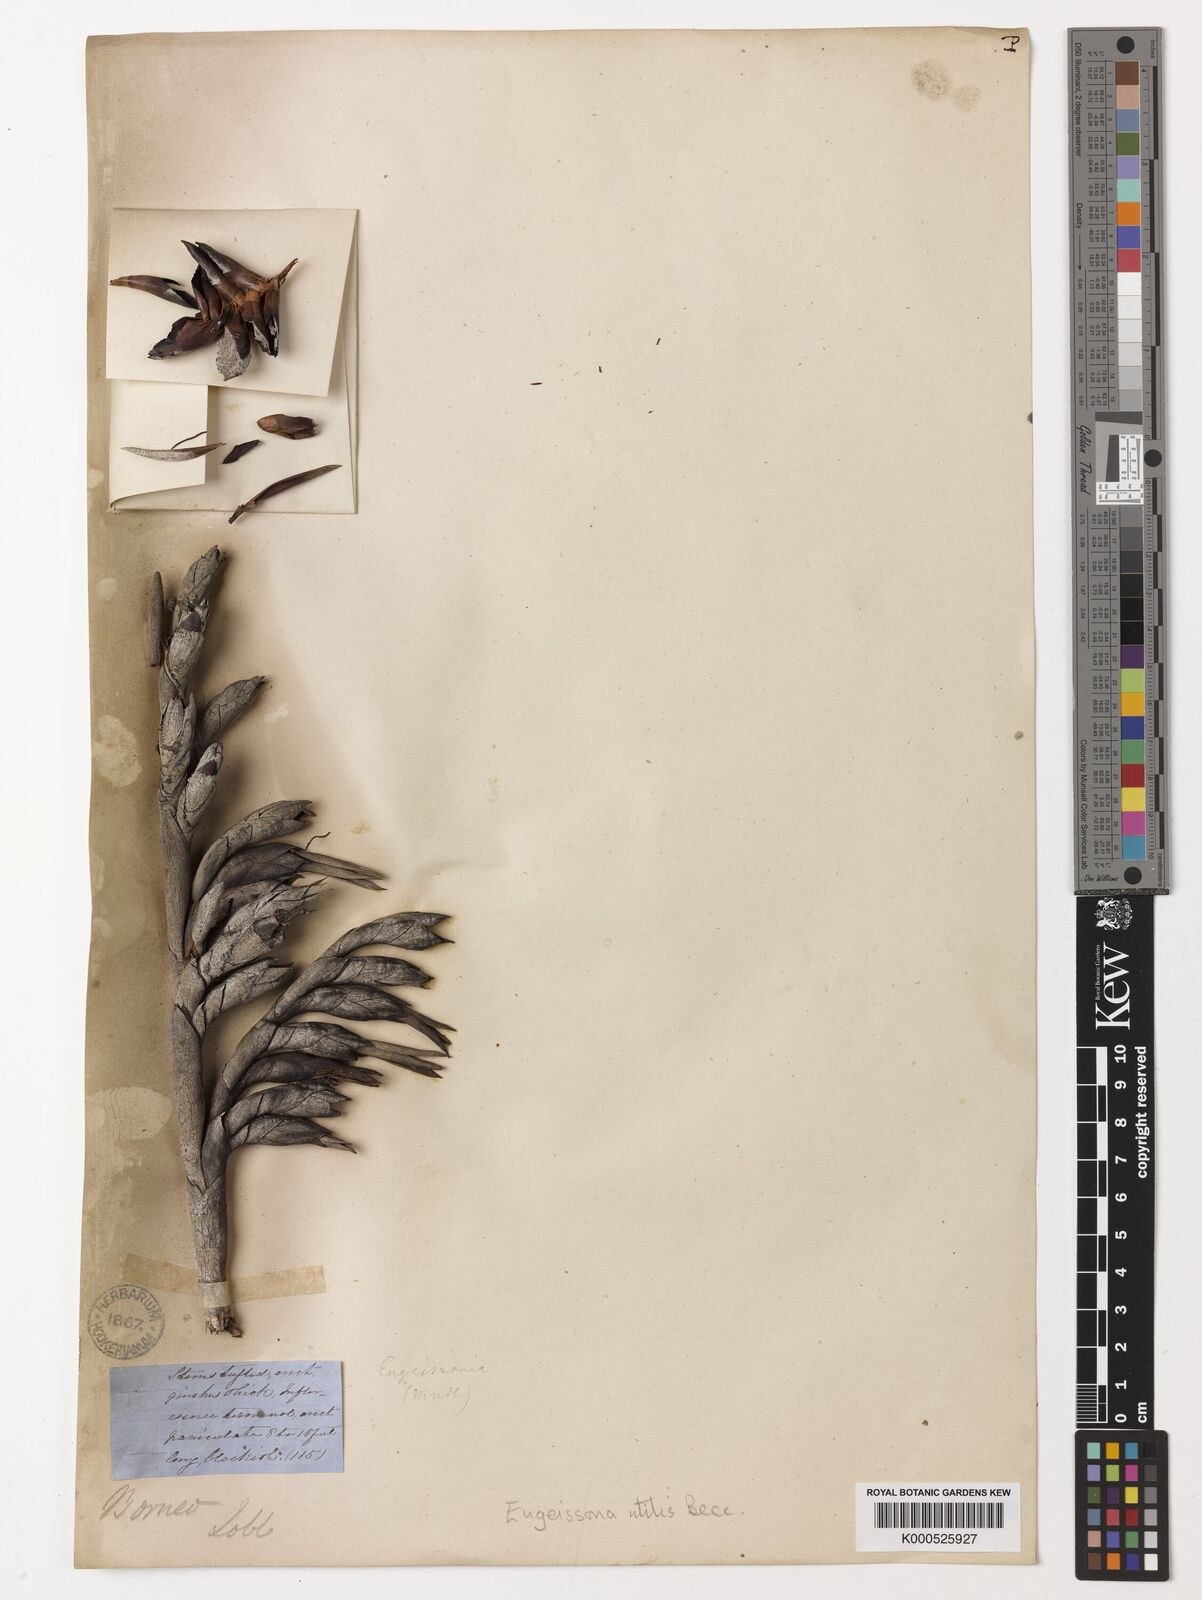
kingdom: Plantae
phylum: Tracheophyta
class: Liliopsida
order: Arecales
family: Arecaceae
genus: Eugeissona
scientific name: Eugeissona utilis
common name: Wild bornean sago palm
